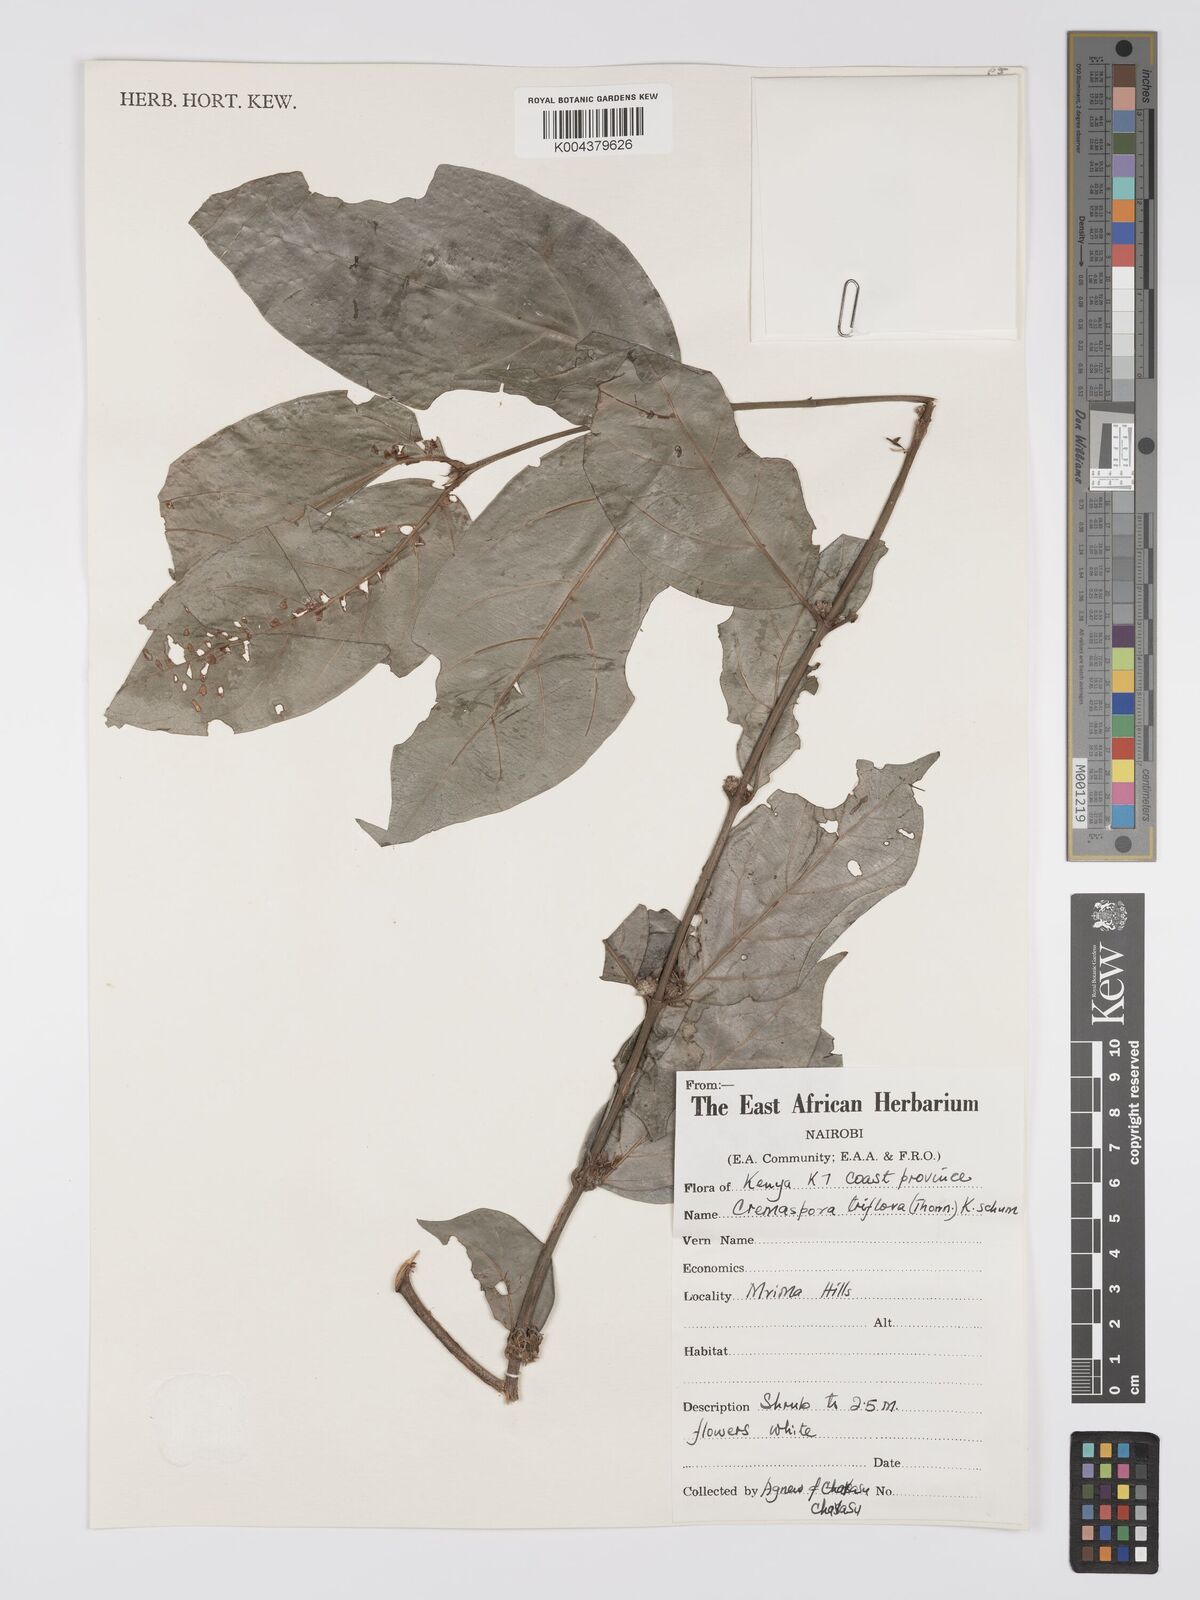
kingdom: Plantae
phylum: Tracheophyta
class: Magnoliopsida
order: Gentianales
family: Rubiaceae
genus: Cremaspora
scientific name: Cremaspora triflora
